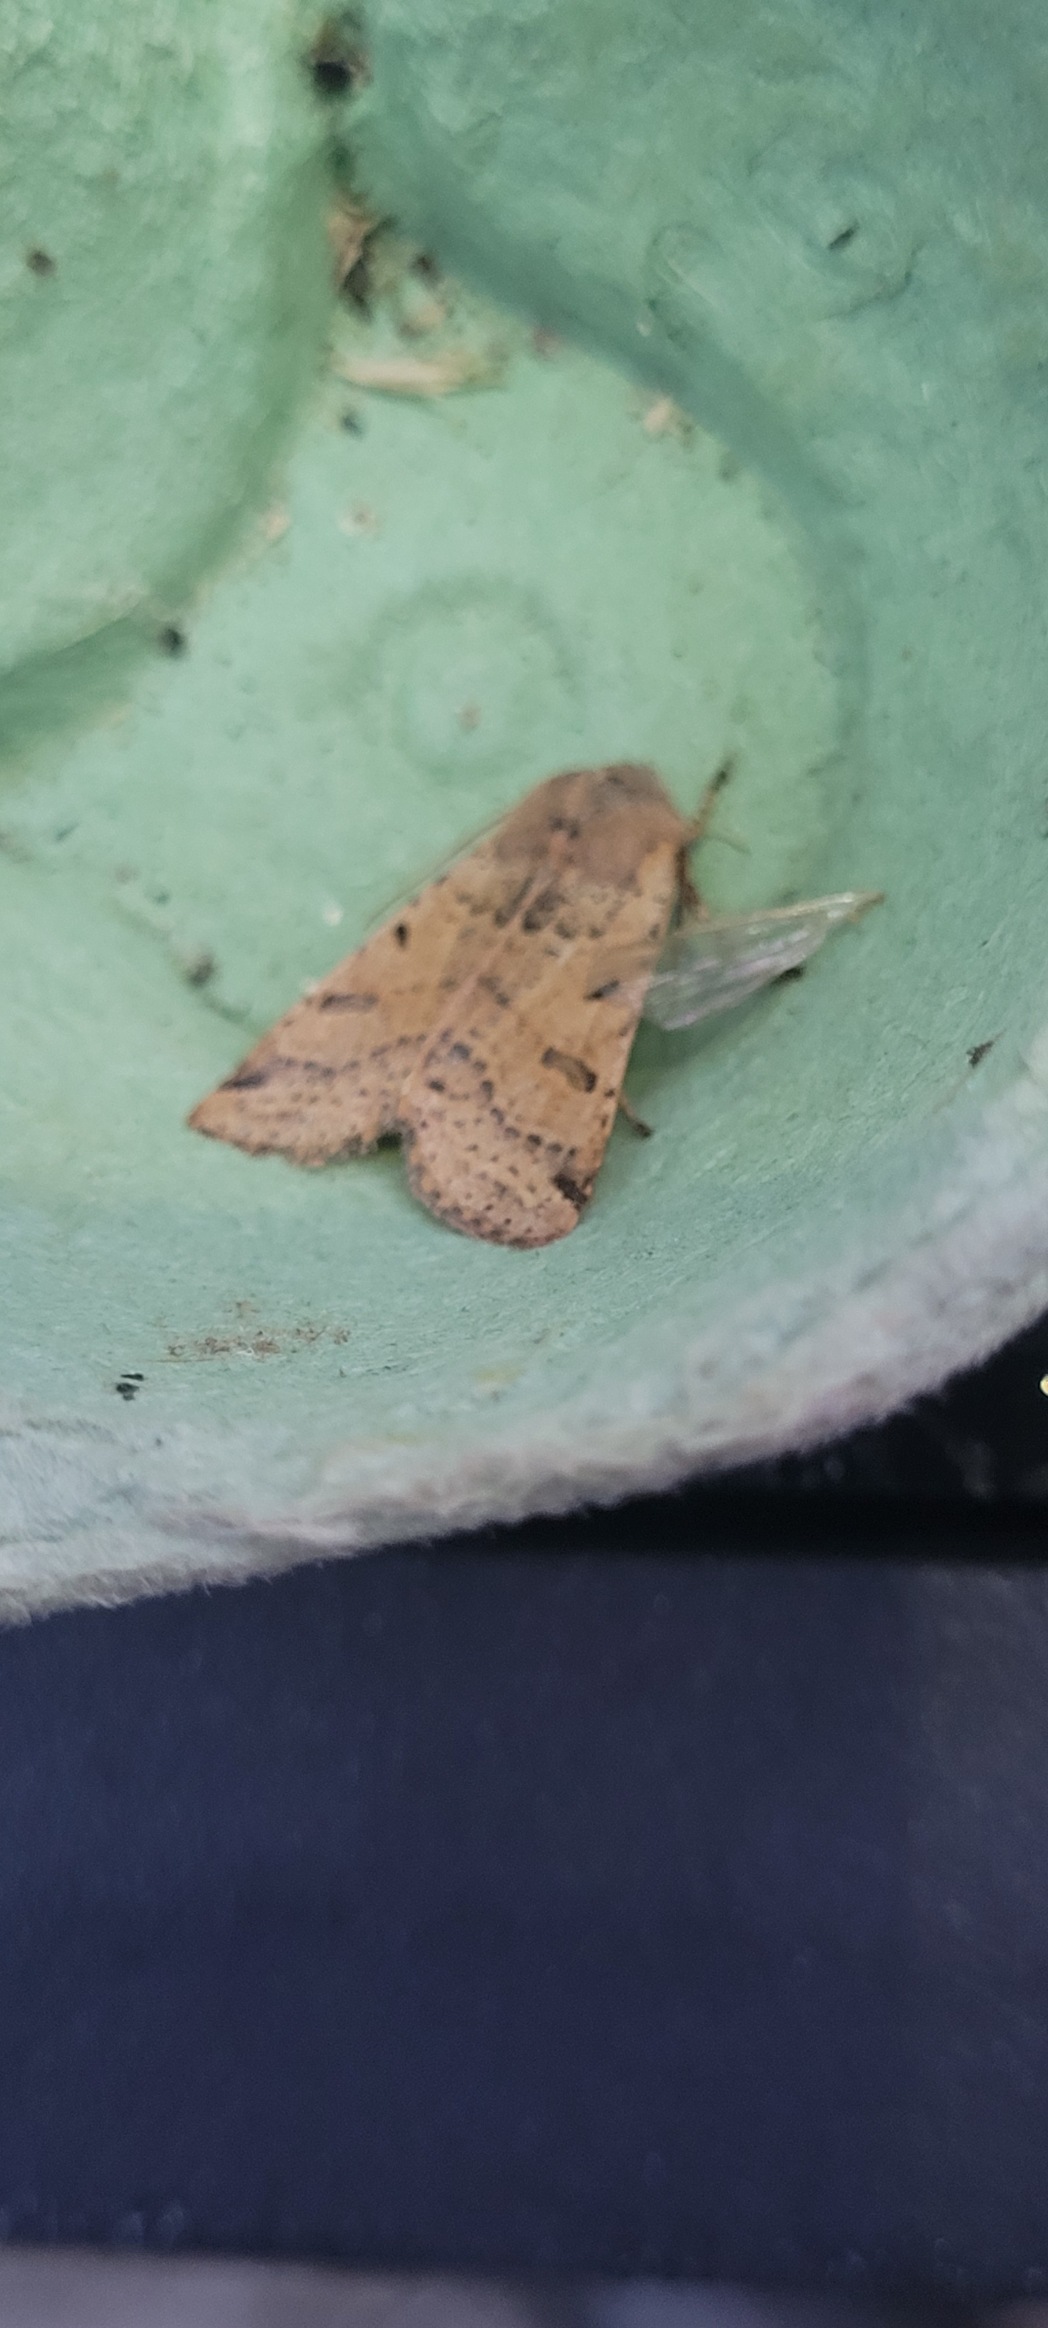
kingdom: Animalia
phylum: Arthropoda
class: Insecta
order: Lepidoptera
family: Noctuidae
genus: Agrochola
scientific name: Agrochola lychnidis
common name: Foranderlig jordfarveugle
